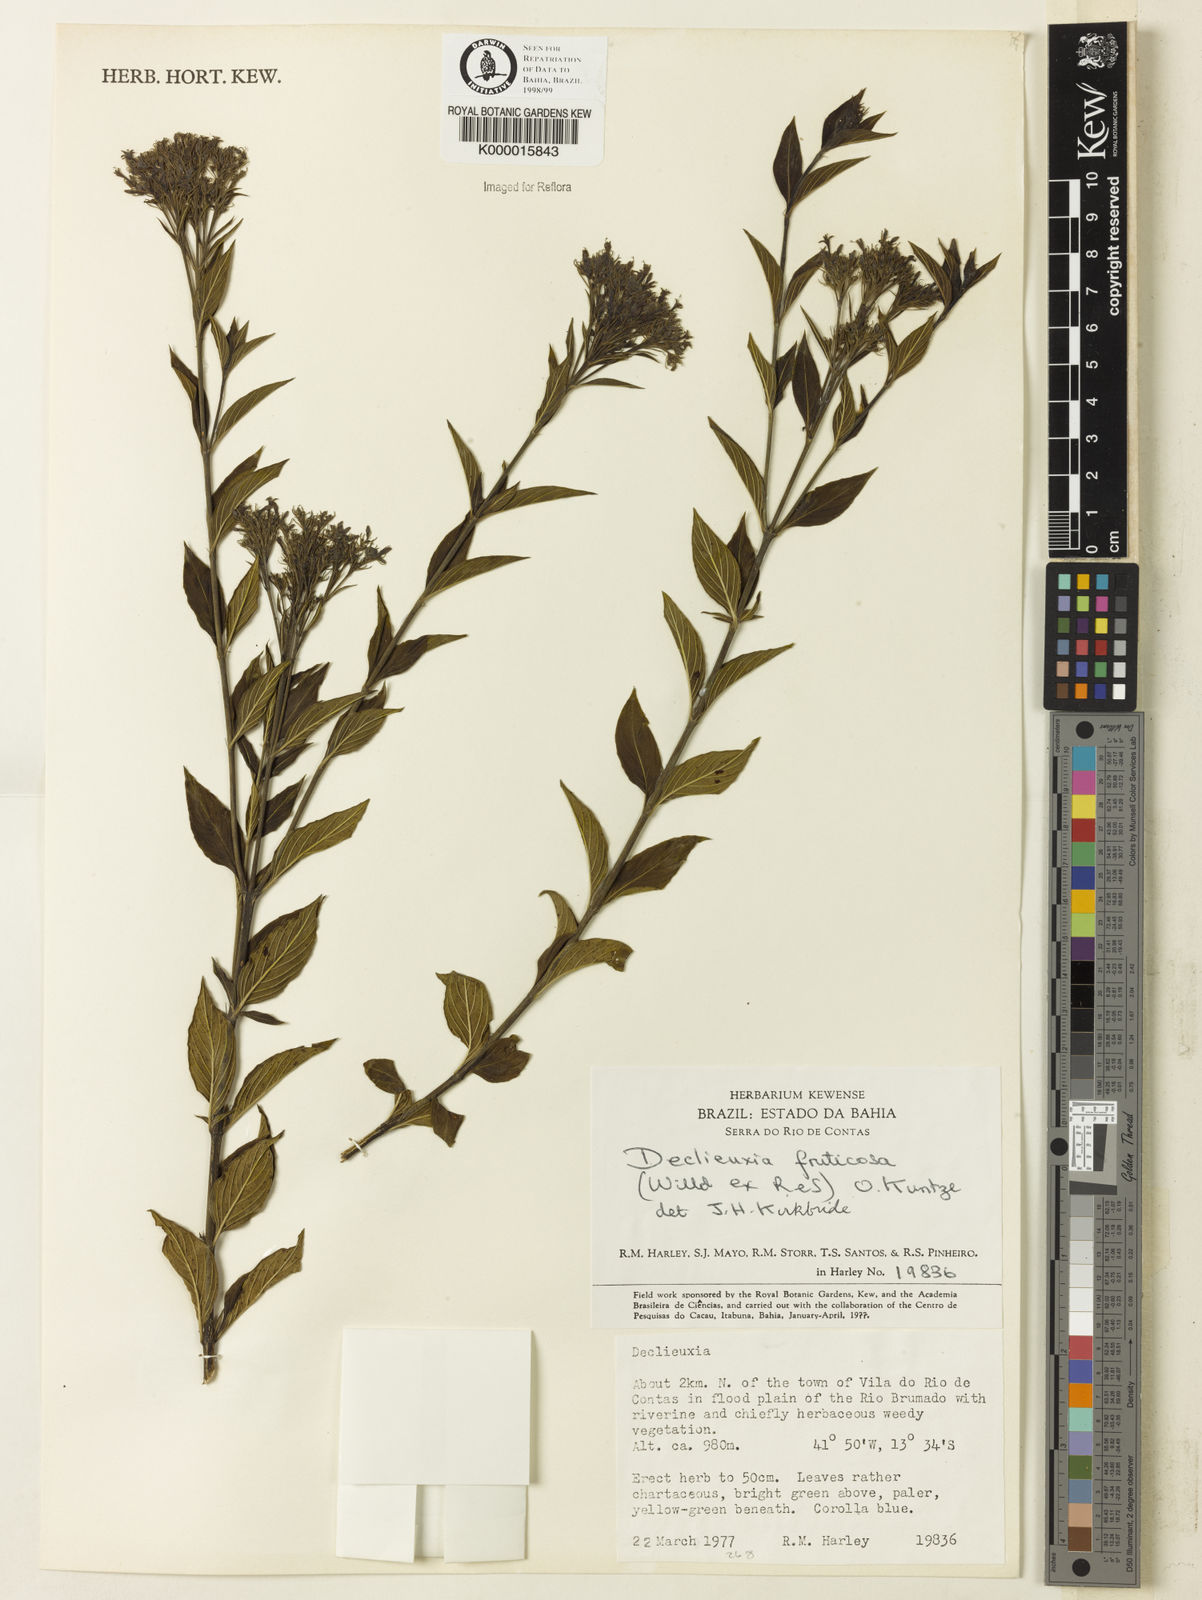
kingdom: Plantae
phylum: Tracheophyta
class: Magnoliopsida
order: Gentianales
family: Rubiaceae
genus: Declieuxia
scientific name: Declieuxia fruticosa
